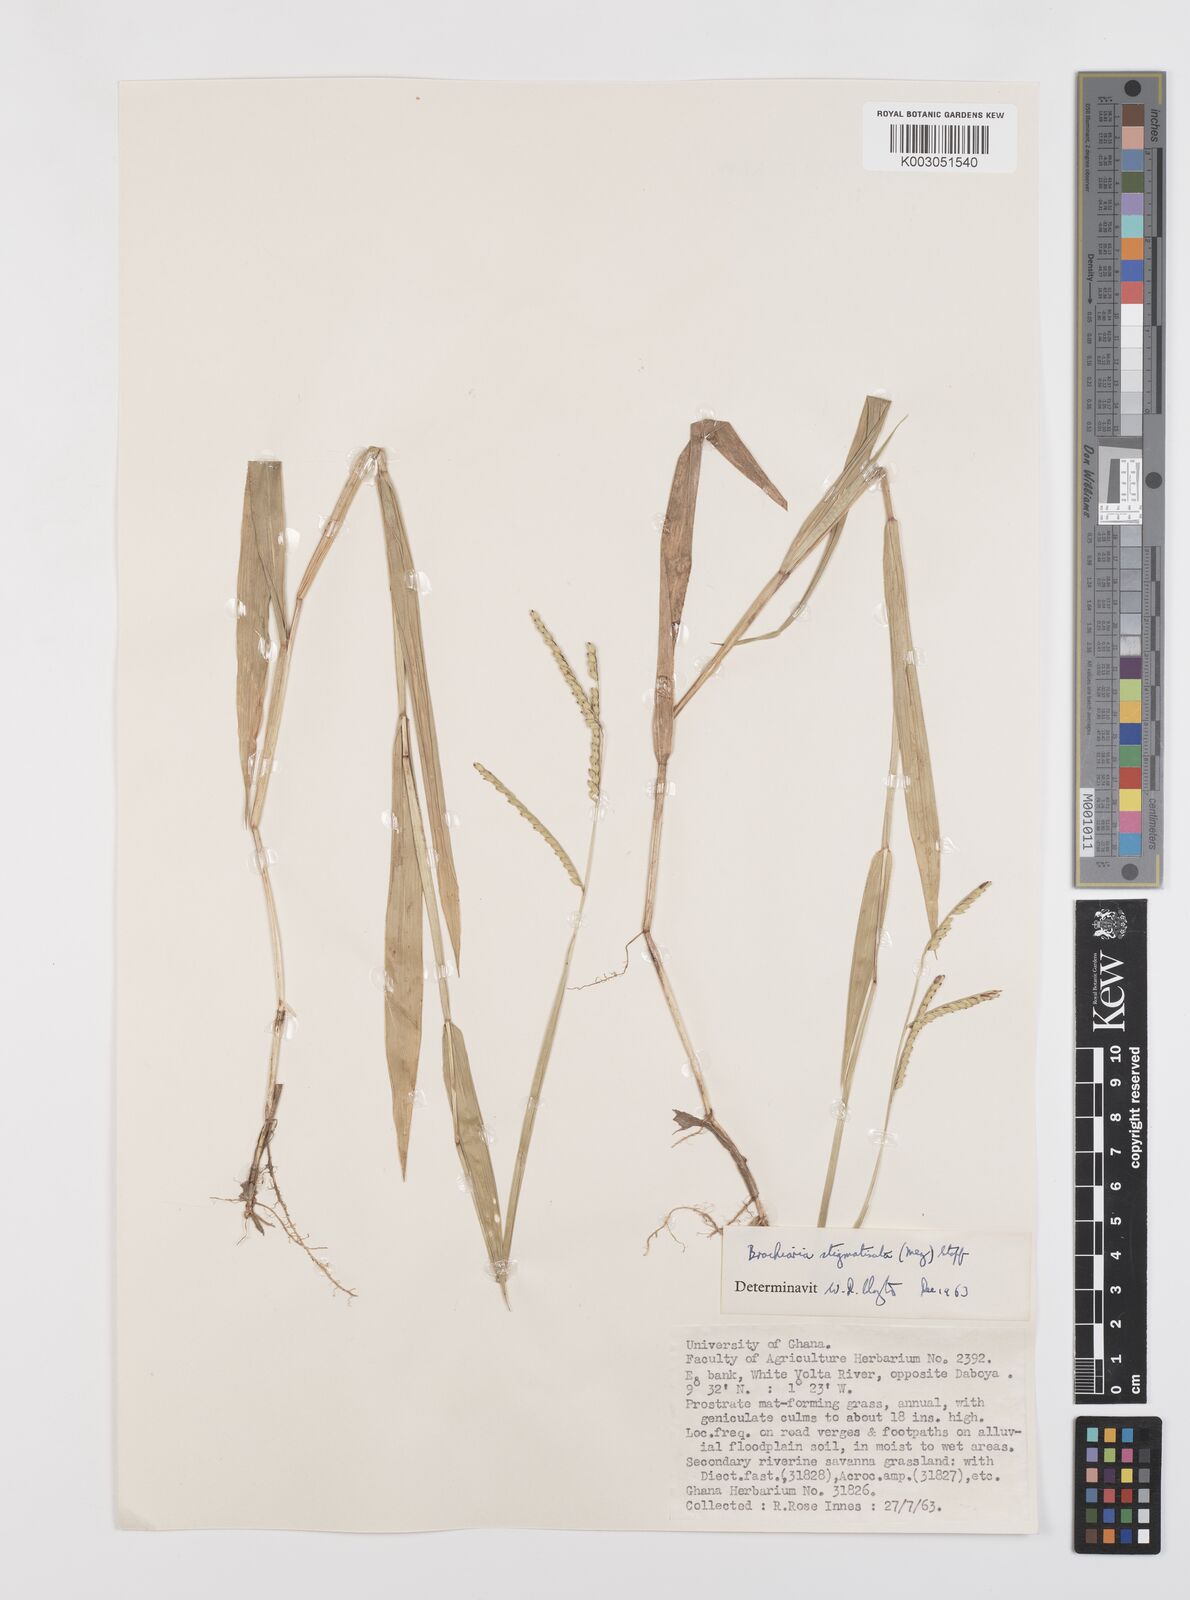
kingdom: Plantae
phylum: Tracheophyta
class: Liliopsida
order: Poales
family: Poaceae
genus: Urochloa
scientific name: Urochloa stigmatisata
